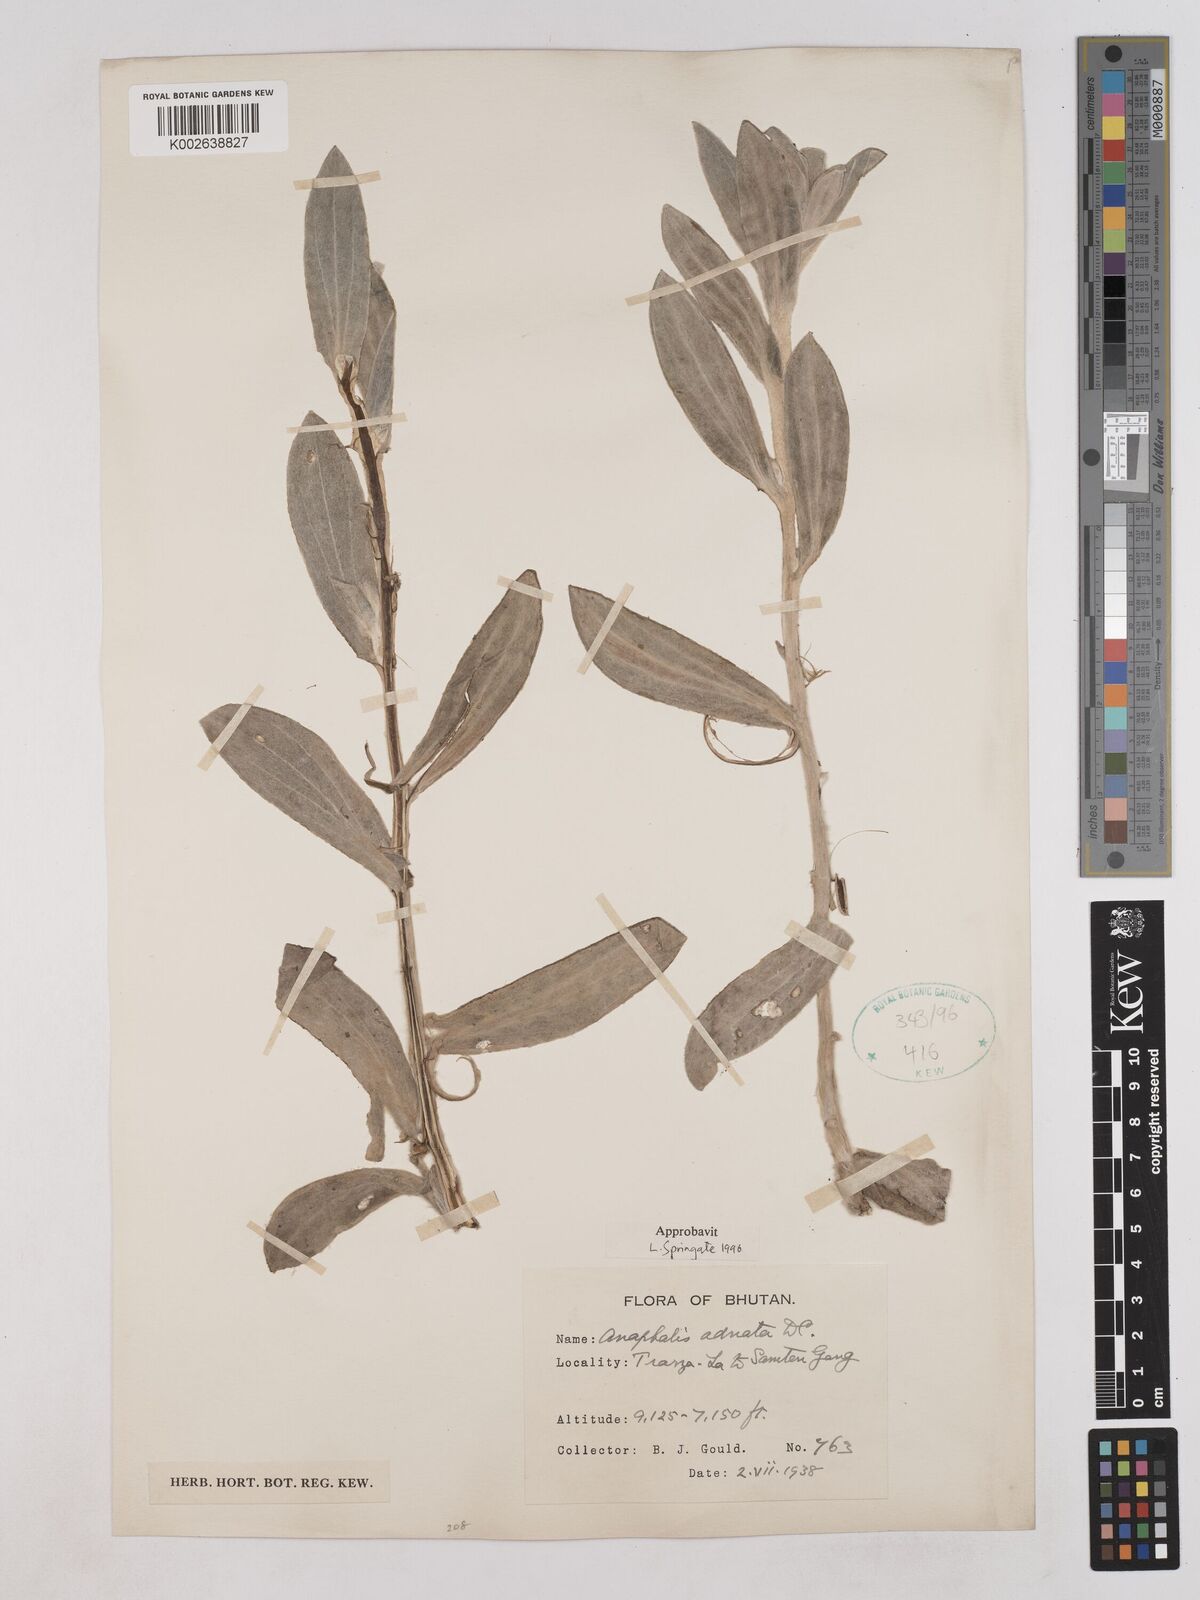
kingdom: Plantae
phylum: Tracheophyta
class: Magnoliopsida
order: Asterales
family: Asteraceae
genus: Pseudognaphalium
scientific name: Pseudognaphalium adnatum
